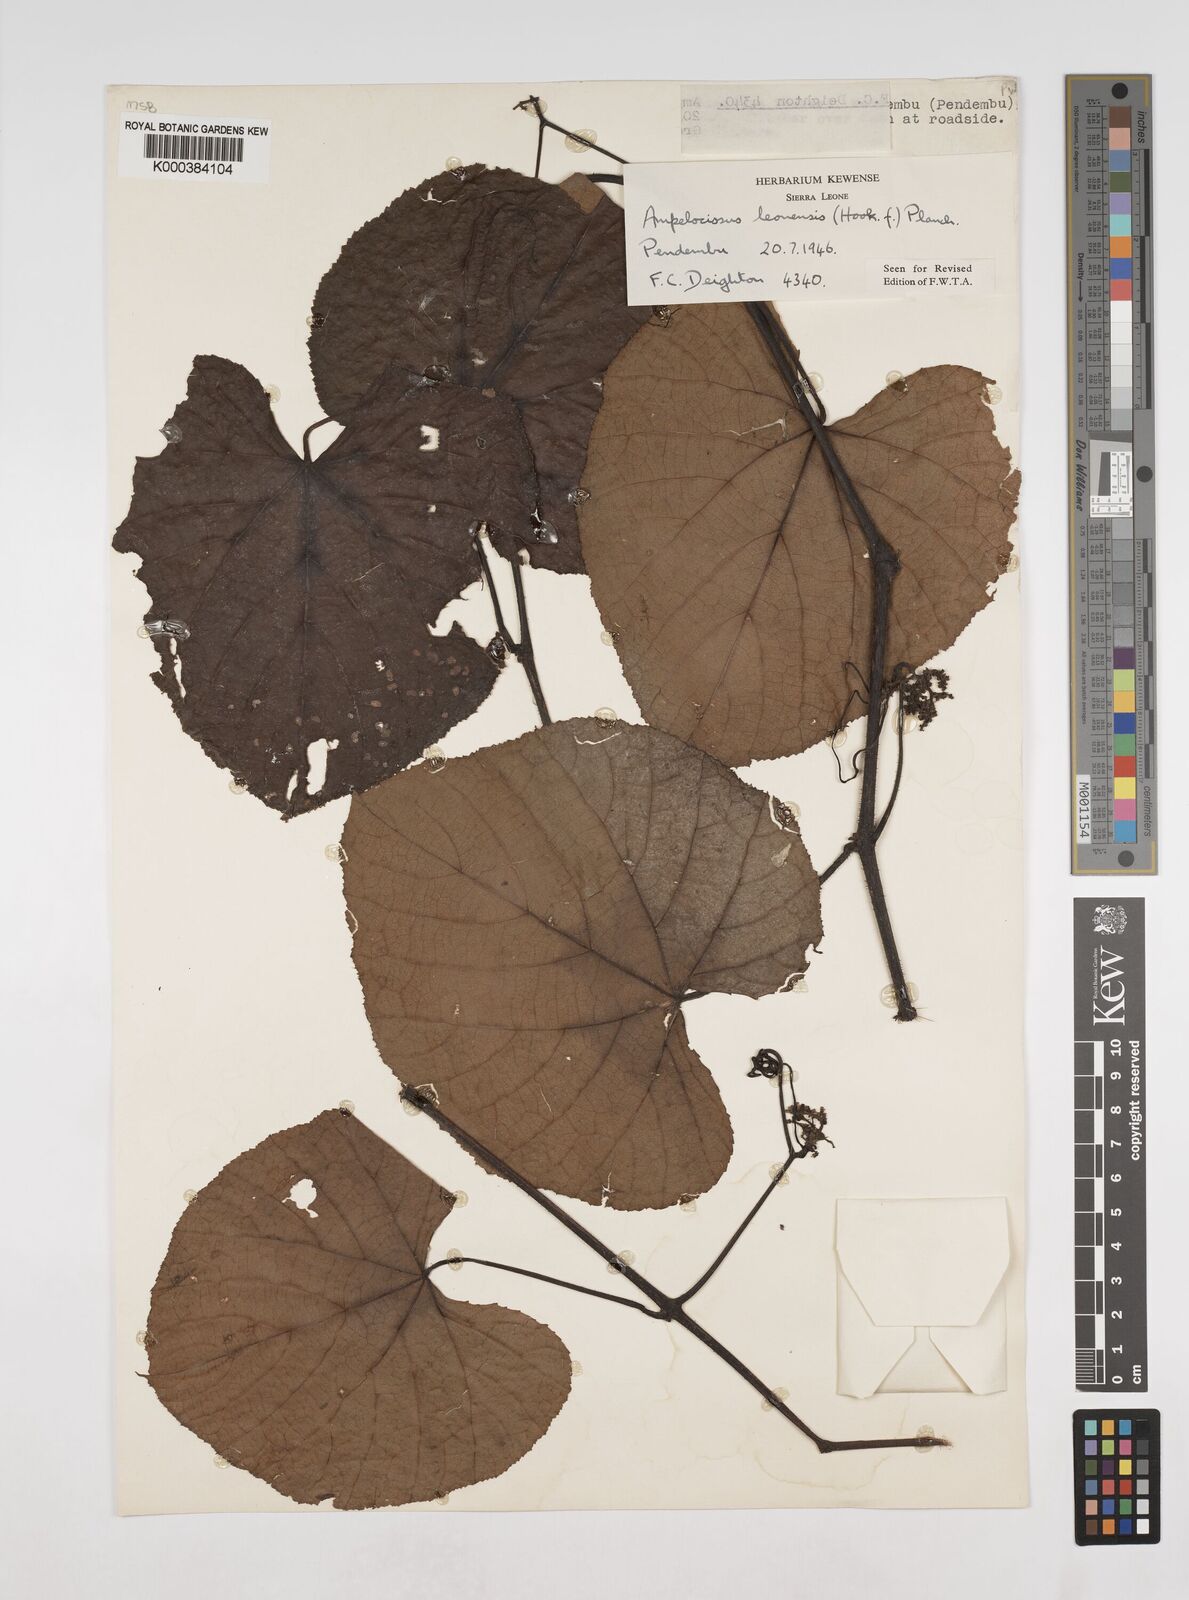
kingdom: Plantae
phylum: Tracheophyta
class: Magnoliopsida
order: Vitales
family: Vitaceae
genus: Ampelocissus
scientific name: Ampelocissus leonensis
